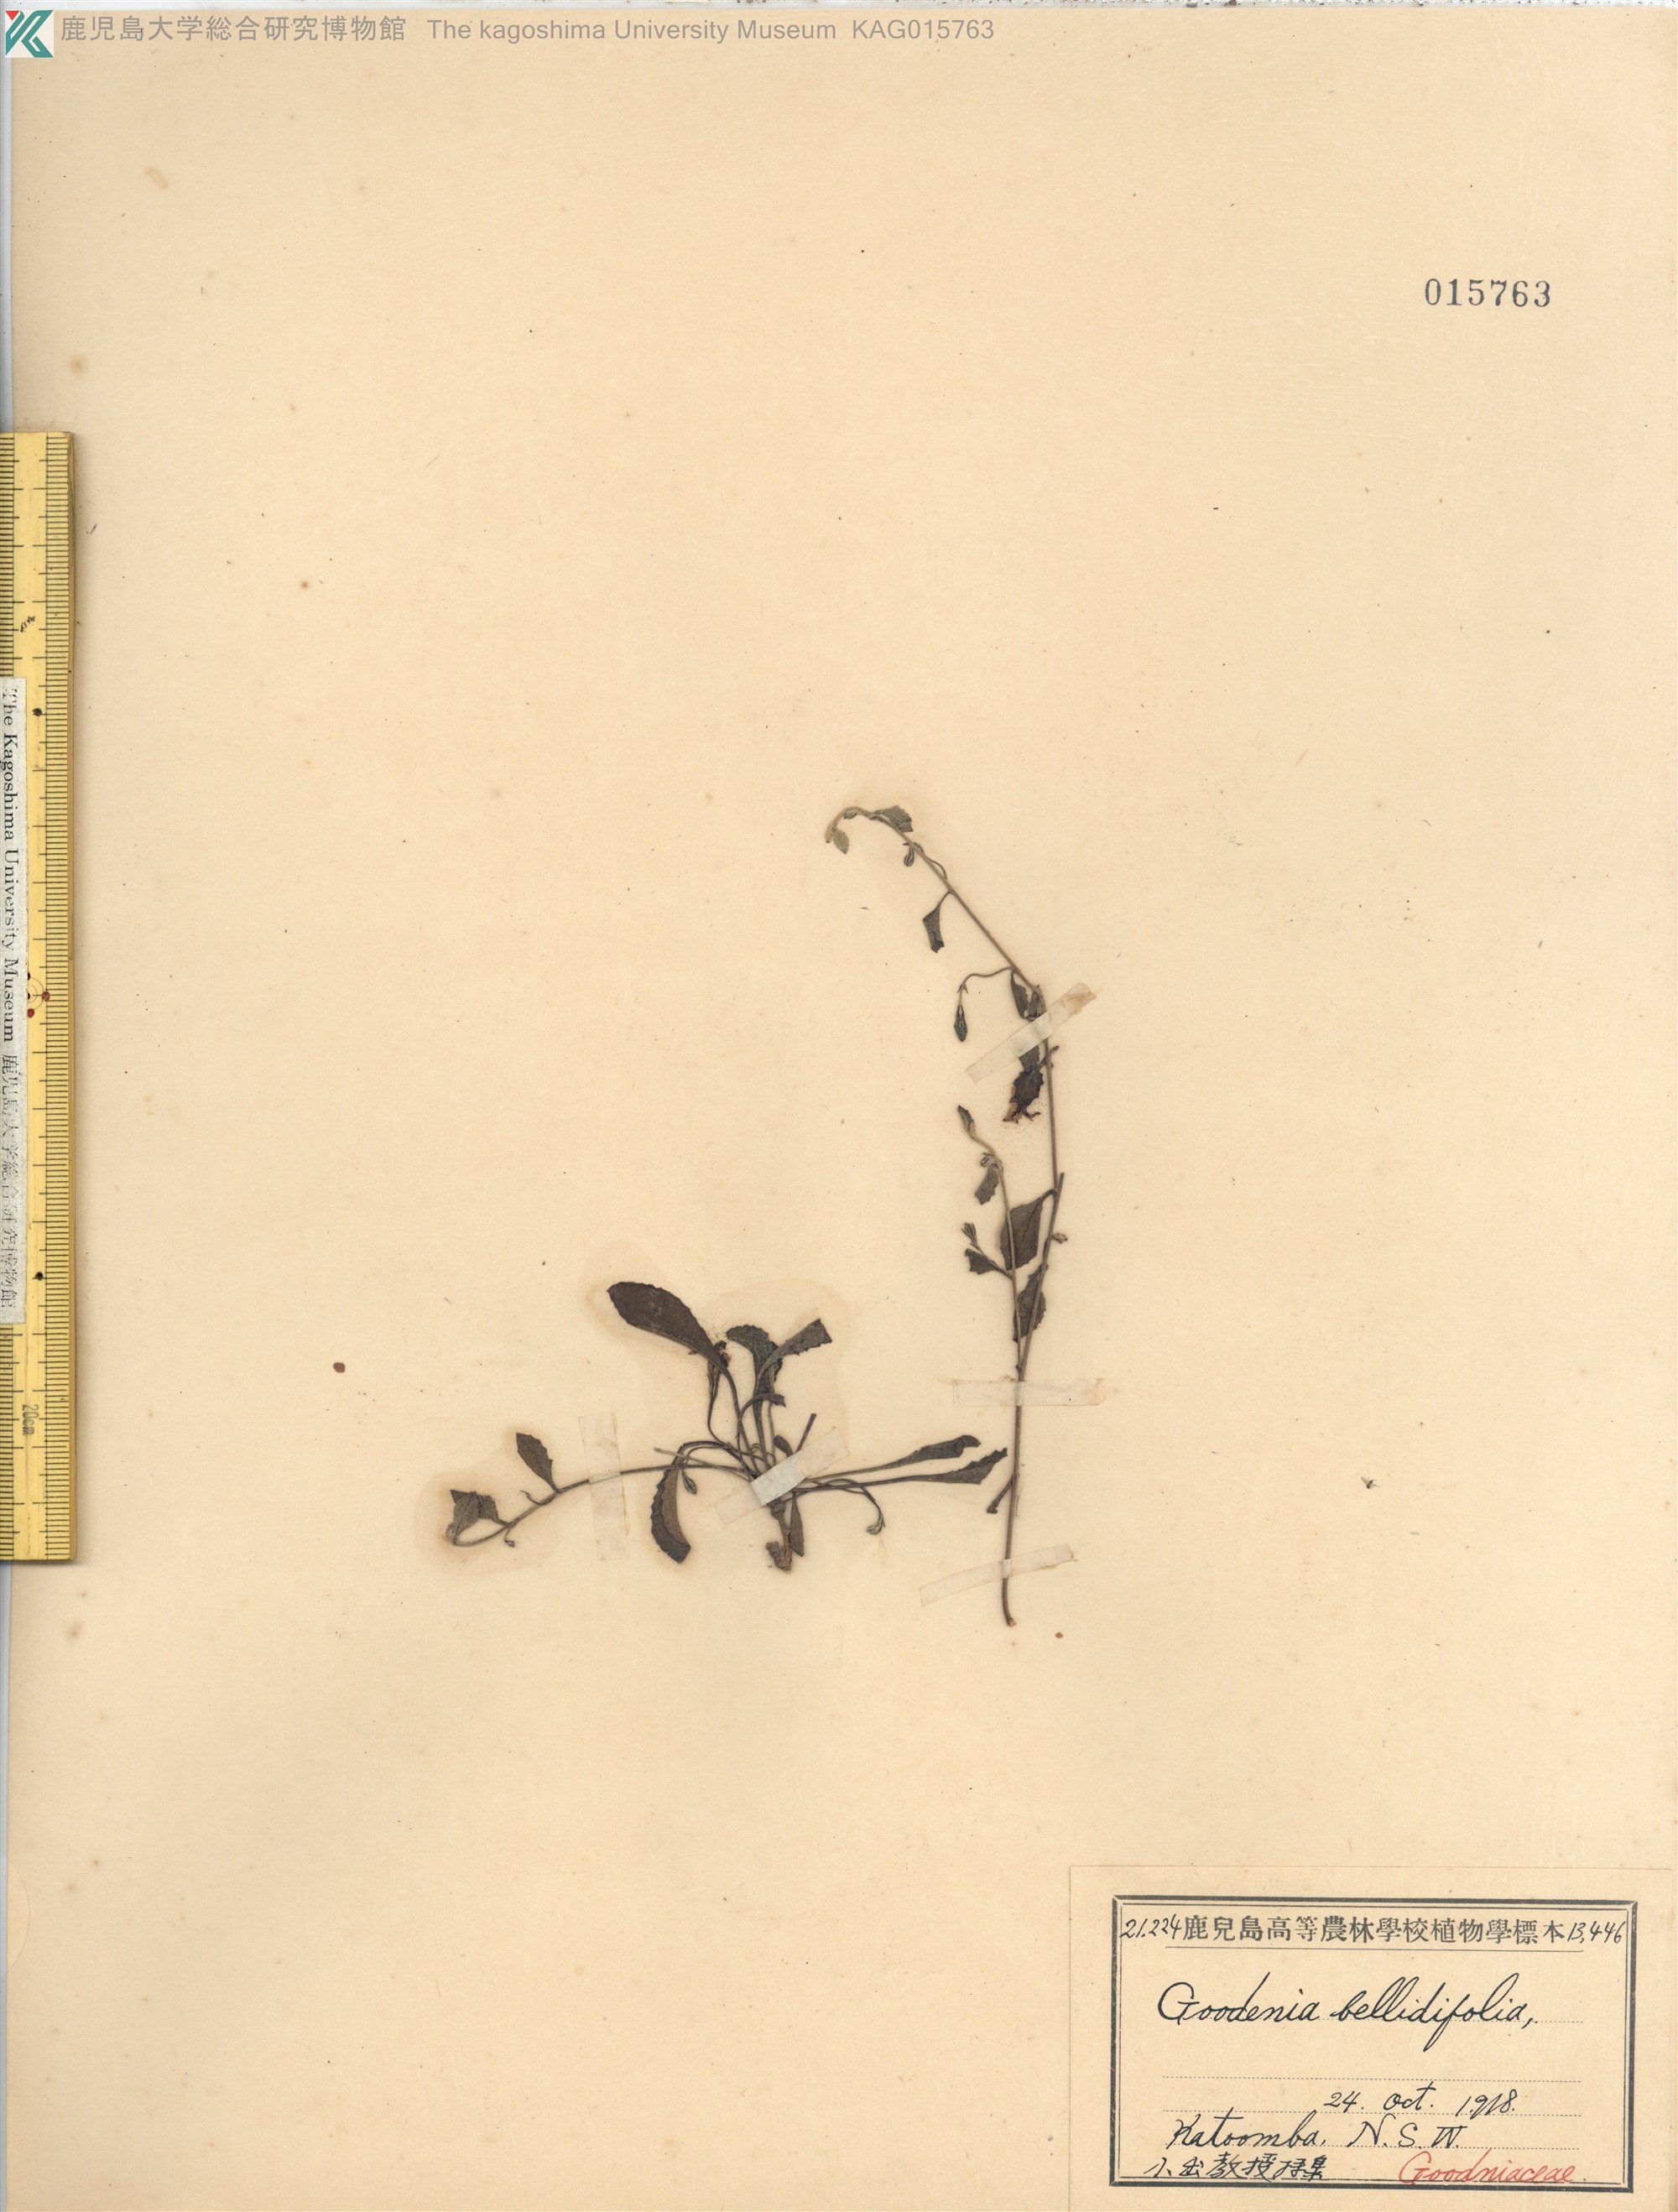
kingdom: Plantae
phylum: Tracheophyta
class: Magnoliopsida
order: Asterales
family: Goodeniaceae
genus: Goodenia
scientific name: Goodenia bellidifolia
